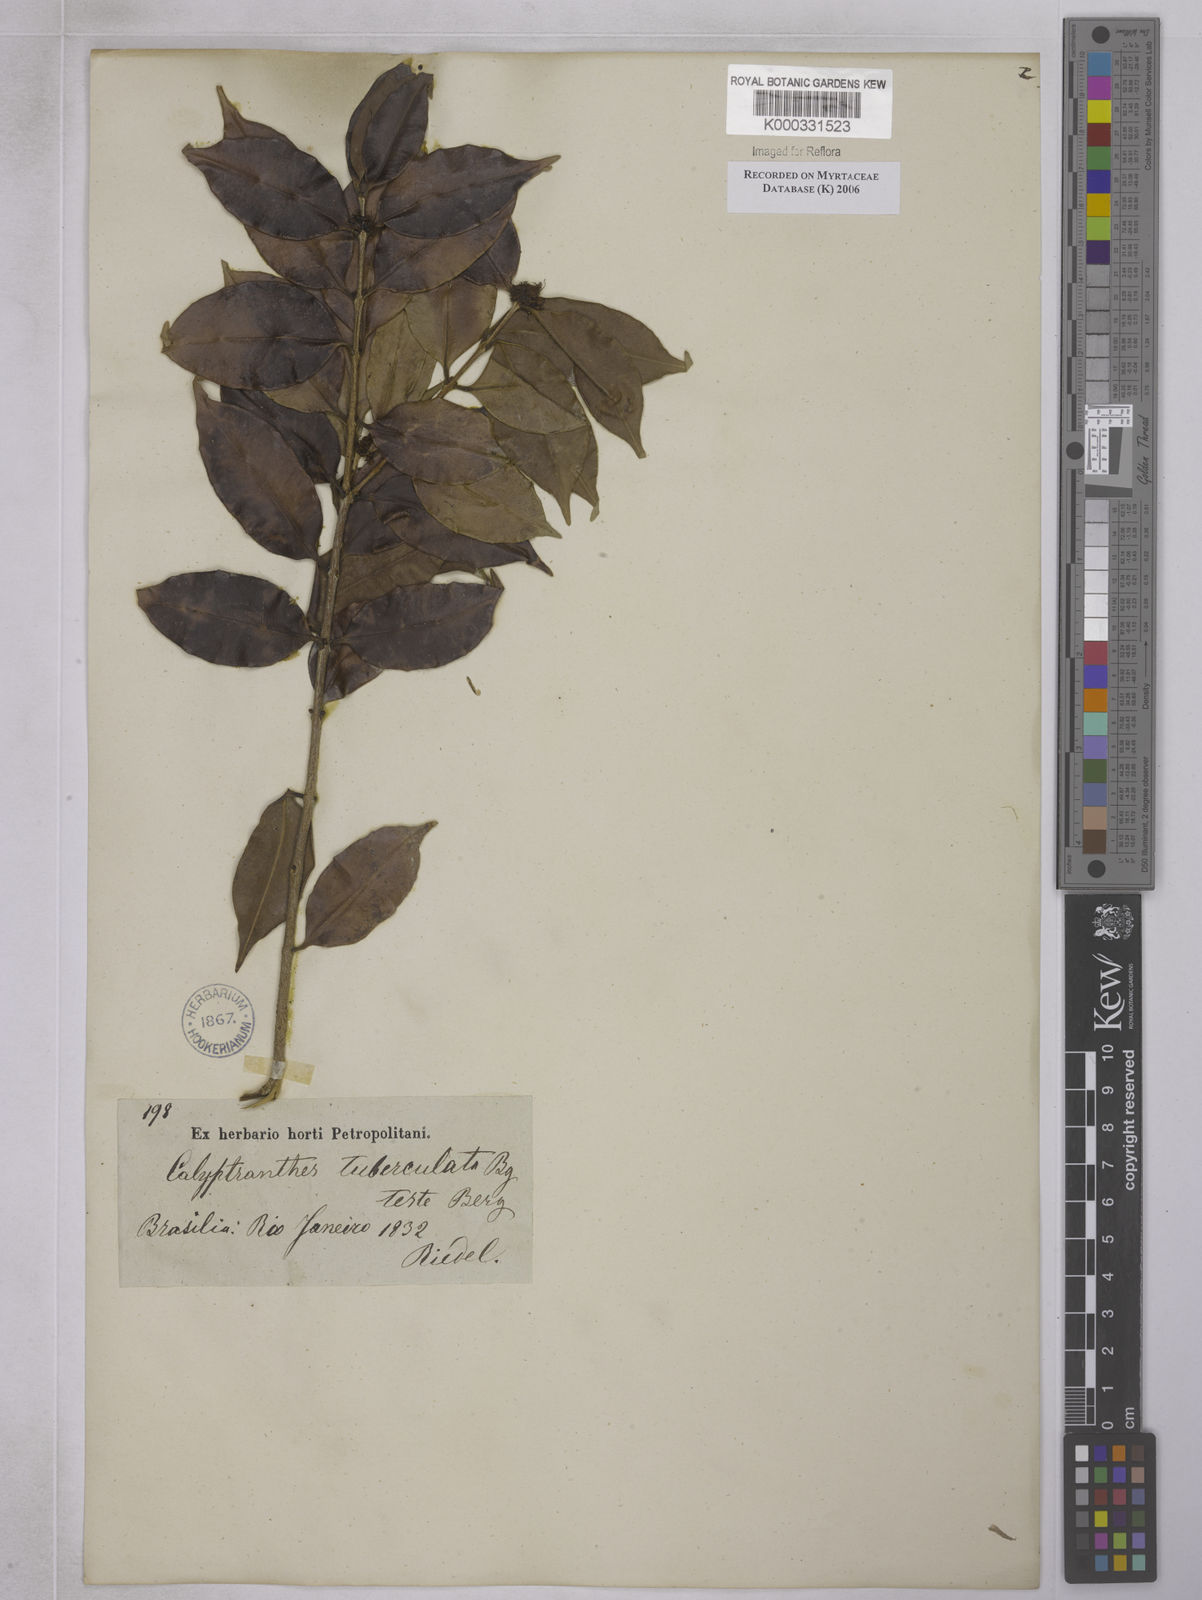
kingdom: Plantae
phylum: Tracheophyta
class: Magnoliopsida
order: Myrtales
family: Myrtaceae
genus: Neomitranthes
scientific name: Neomitranthes obscura
